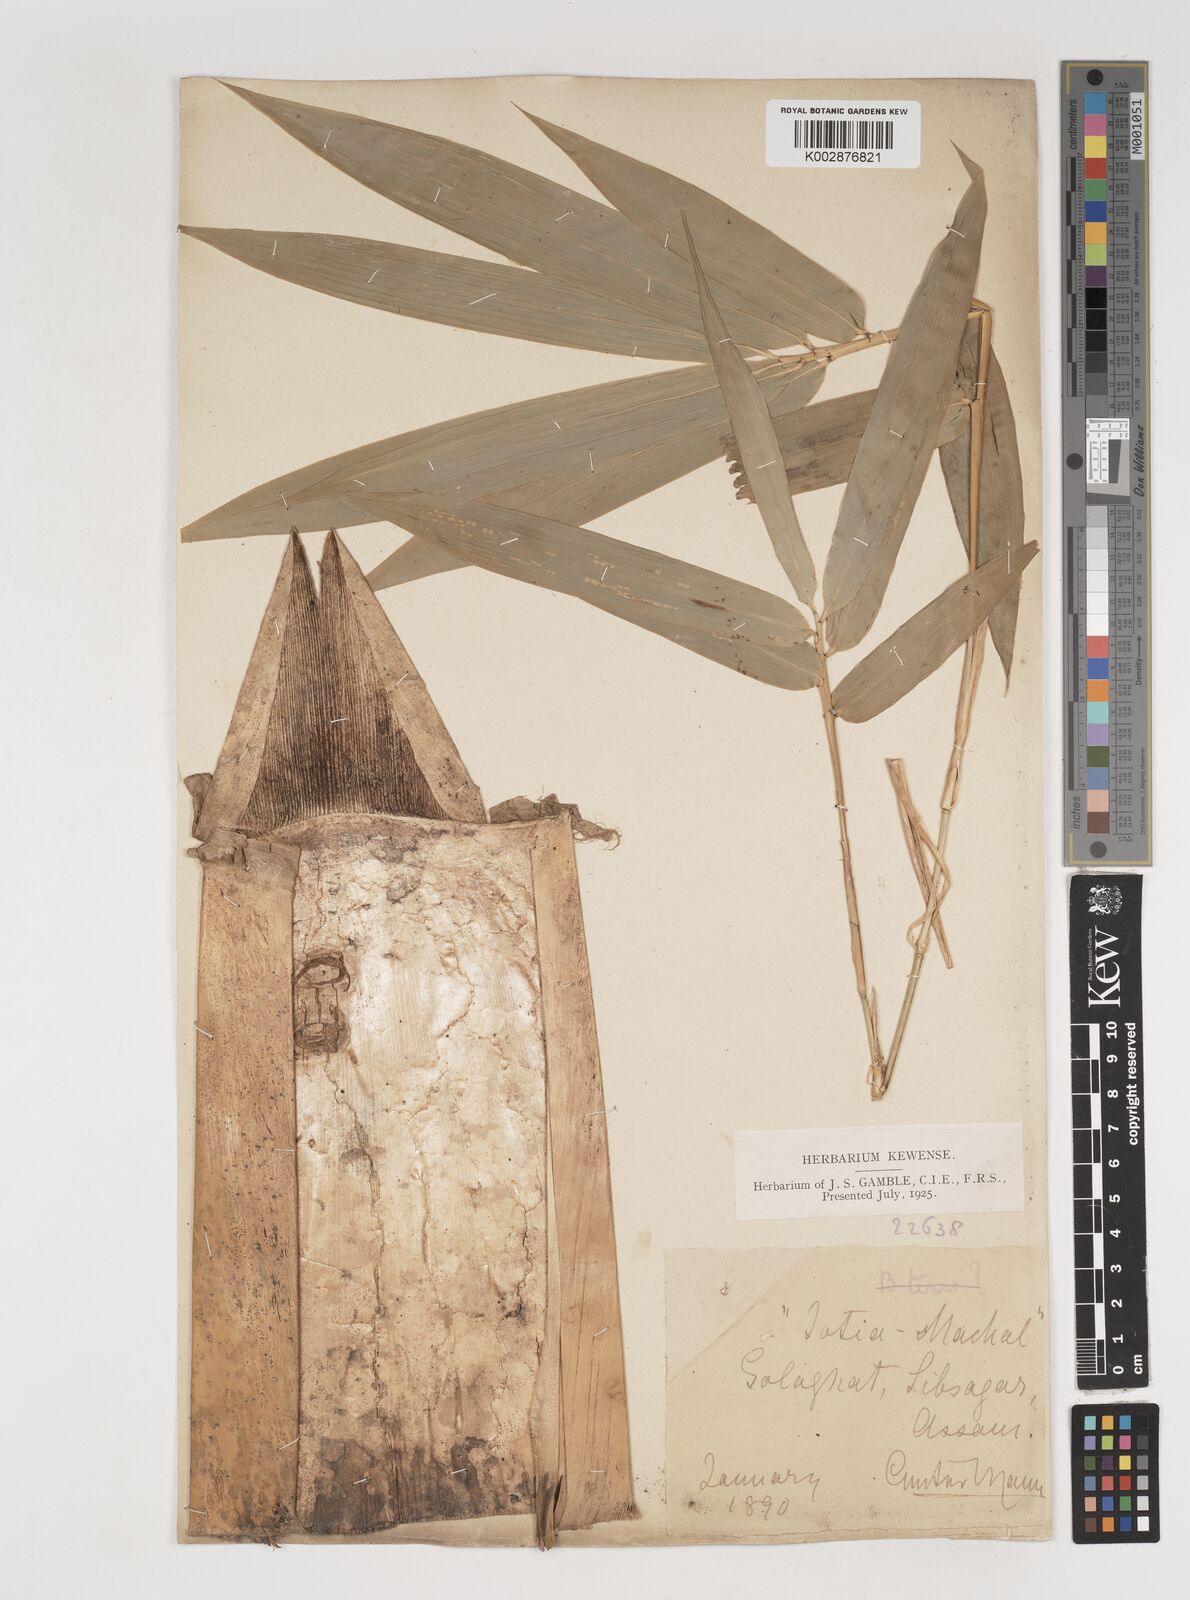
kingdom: Plantae
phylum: Tracheophyta
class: Liliopsida
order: Poales
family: Poaceae
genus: Bambusa
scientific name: Bambusa teres
